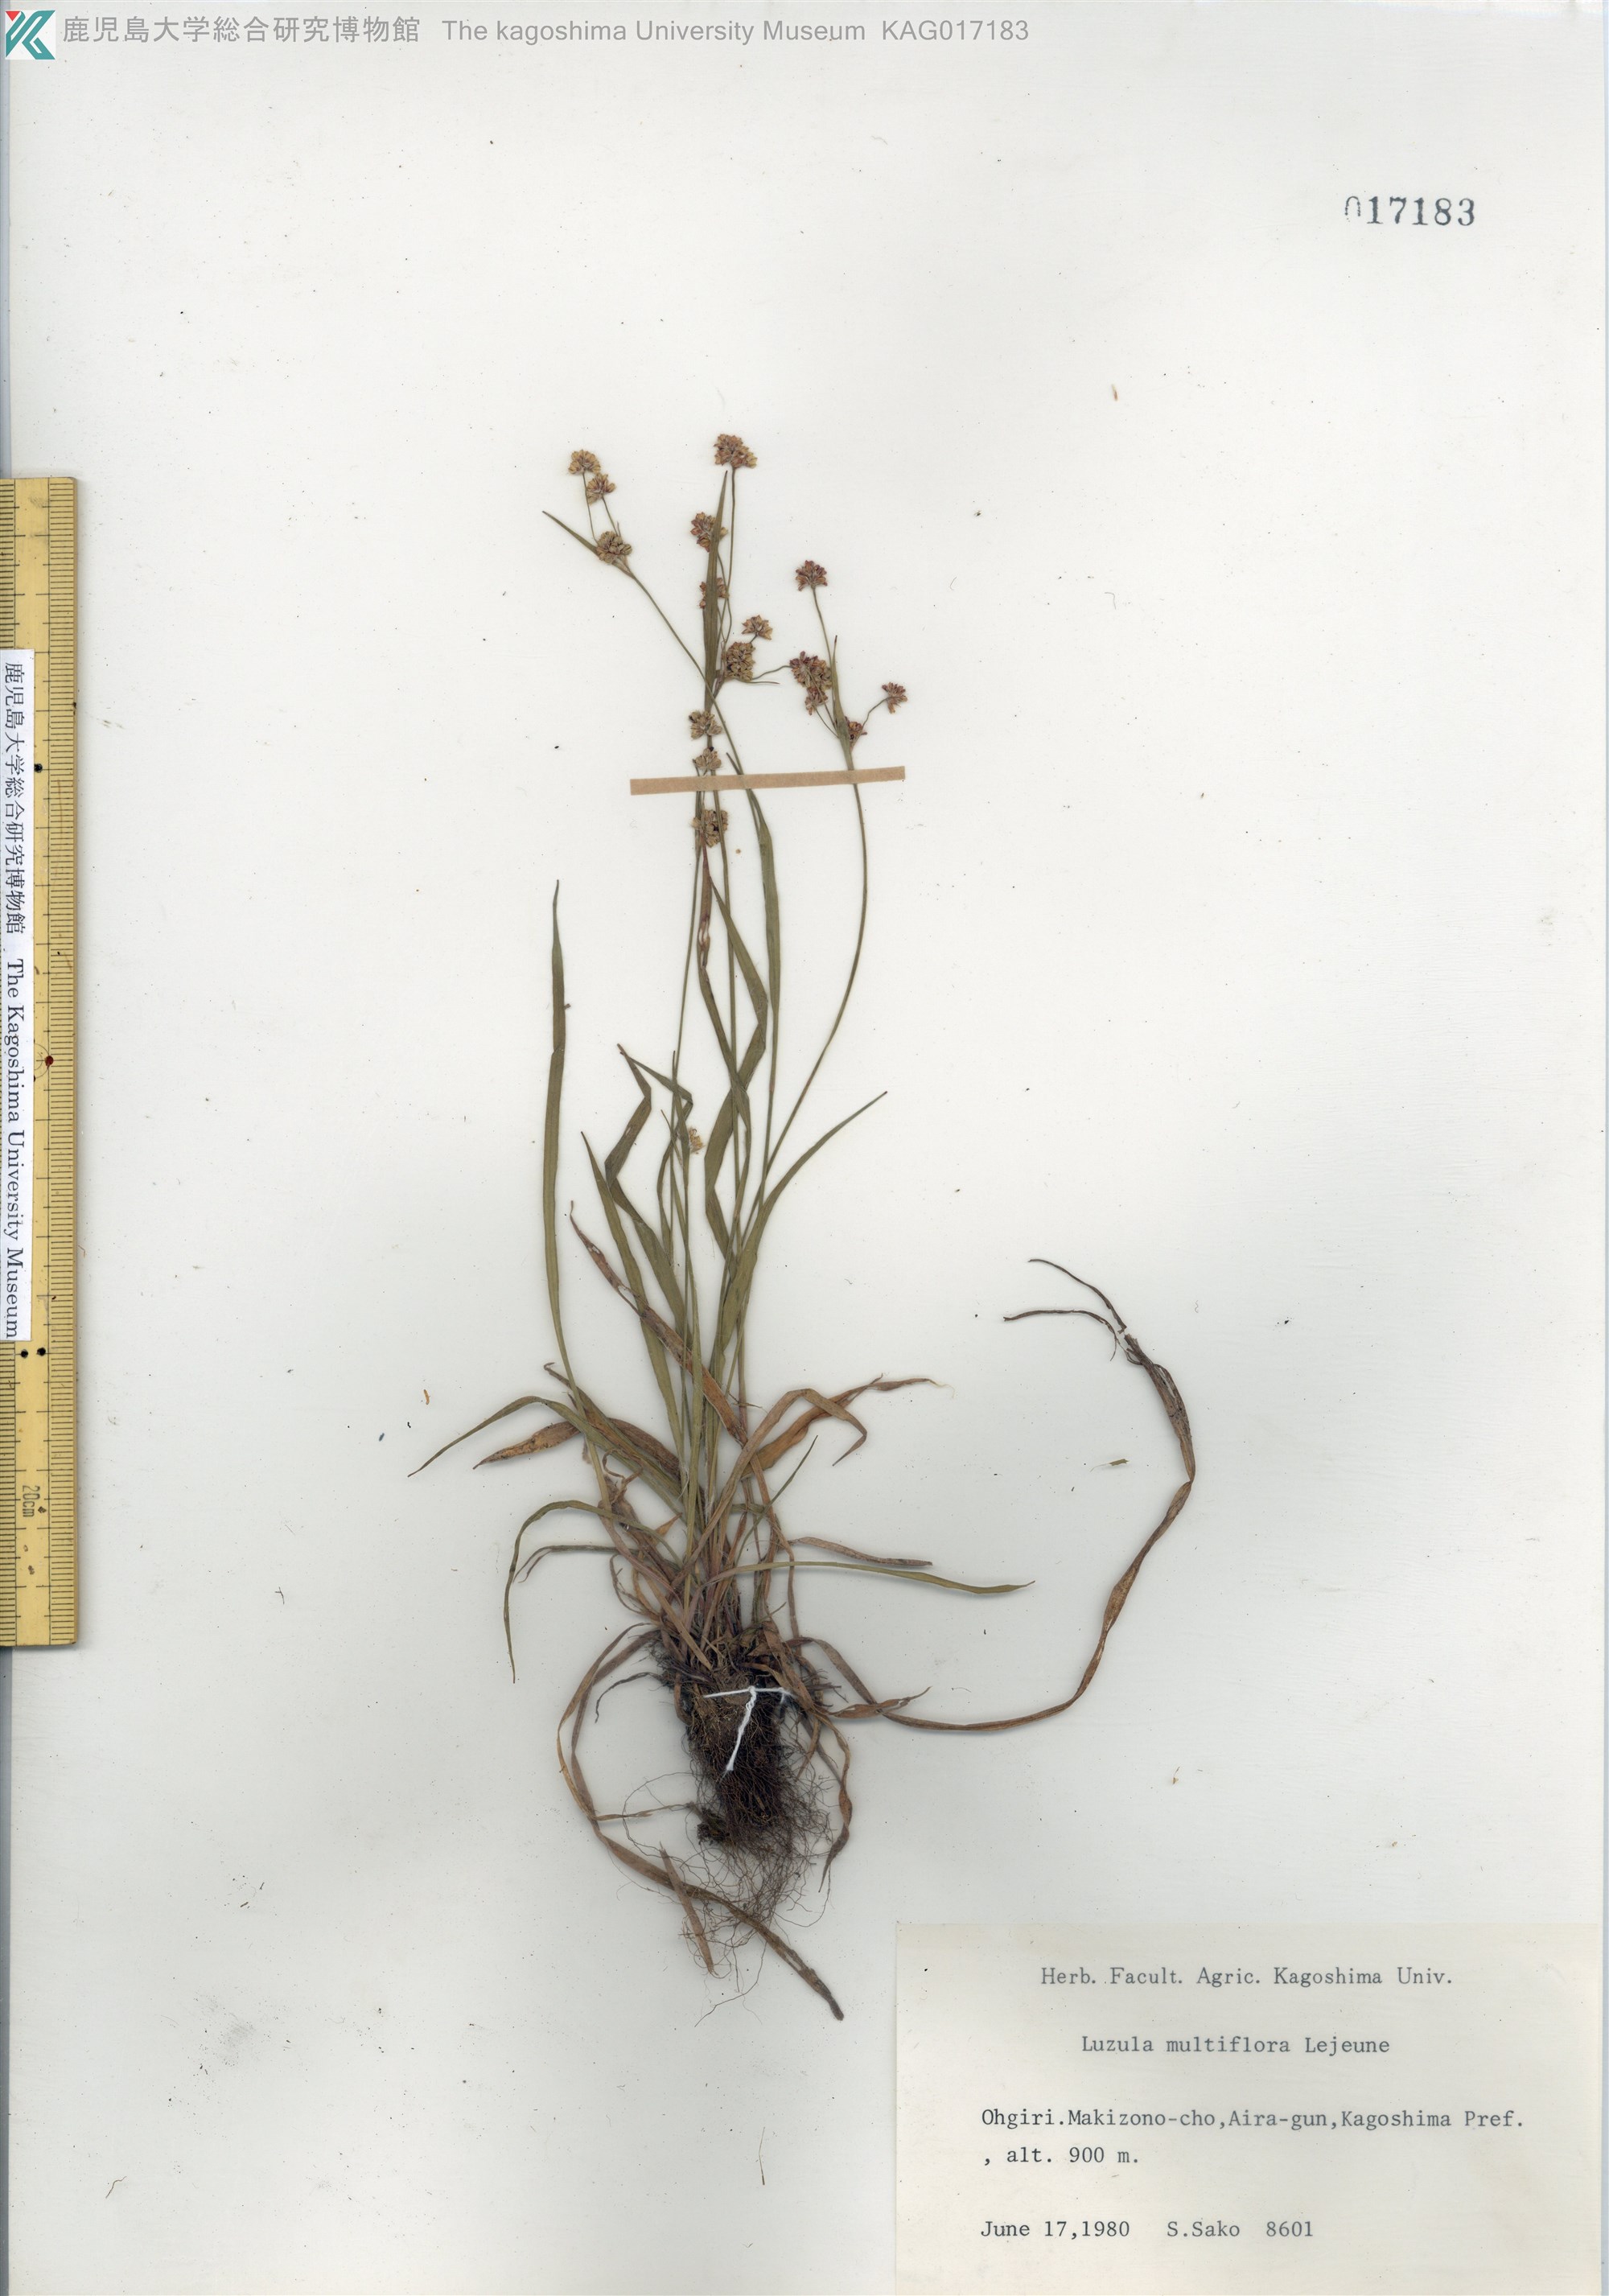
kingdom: Plantae
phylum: Tracheophyta
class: Liliopsida
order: Poales
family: Juncaceae
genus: Luzula
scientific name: Luzula multiflora
